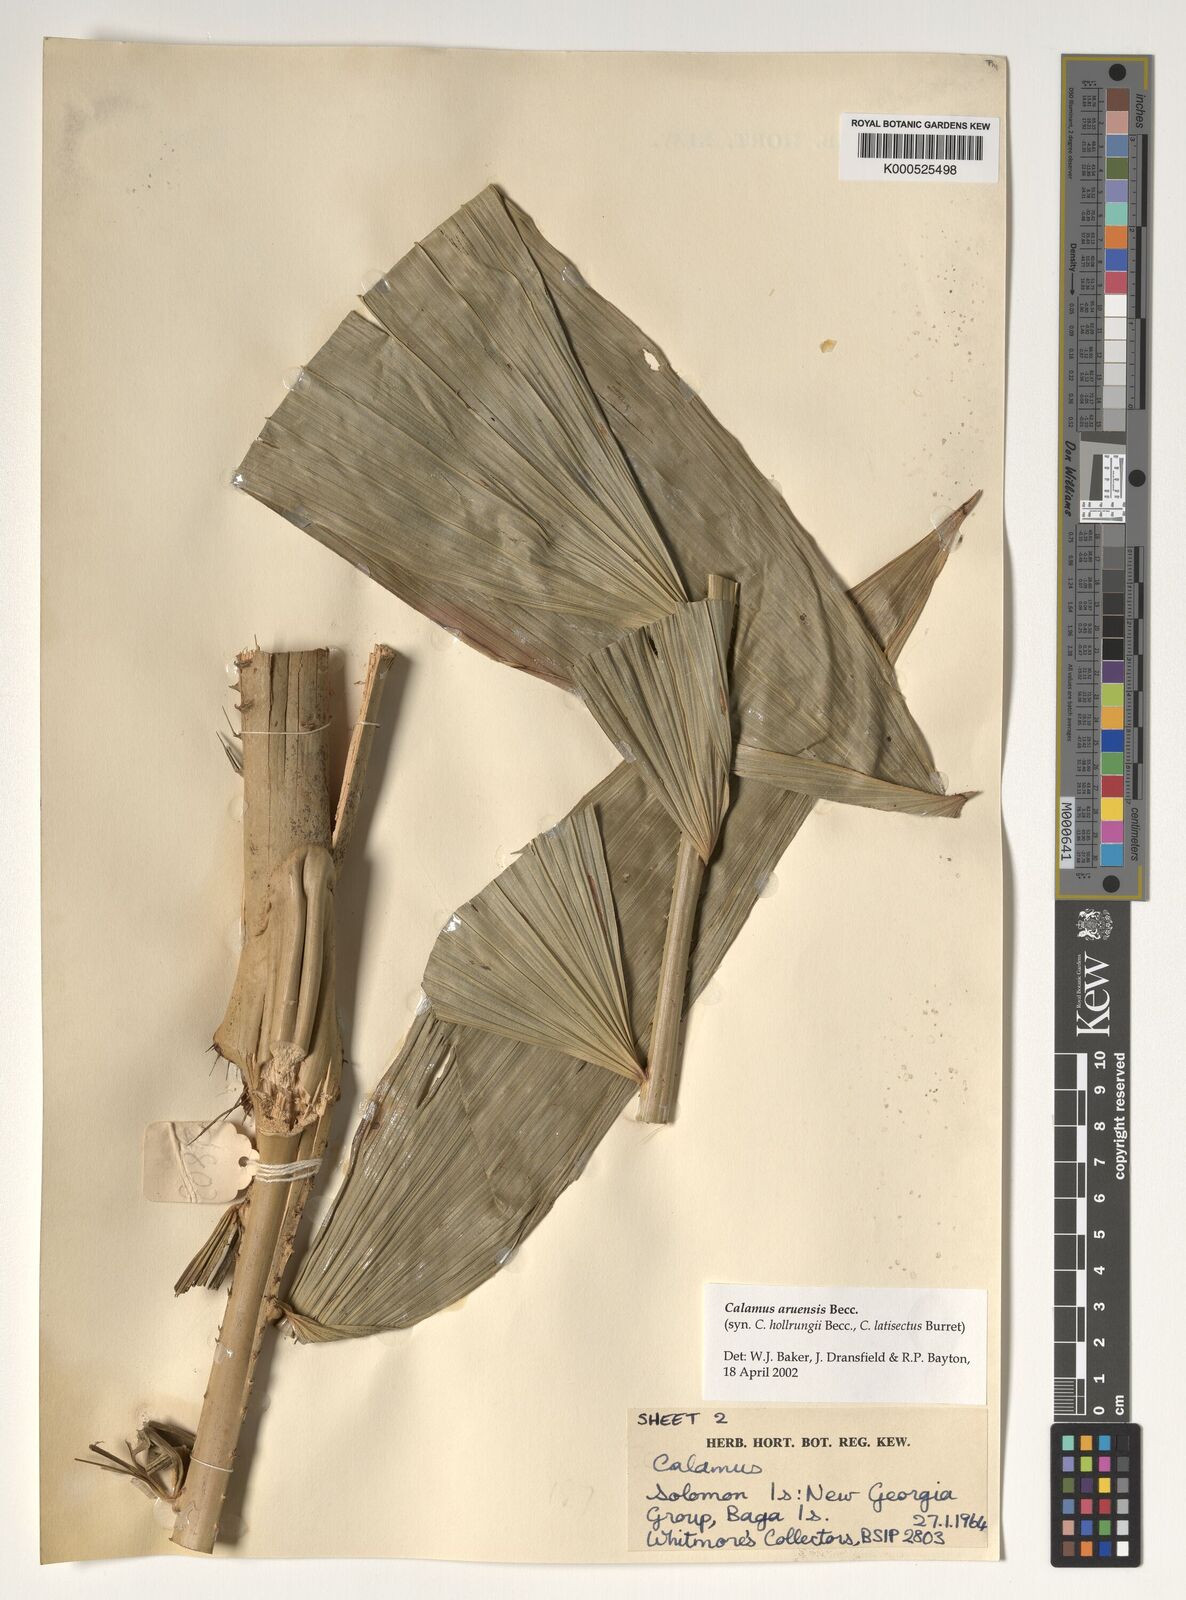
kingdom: Plantae
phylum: Tracheophyta
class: Liliopsida
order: Arecales
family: Arecaceae
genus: Calamus
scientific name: Calamus aruensis
